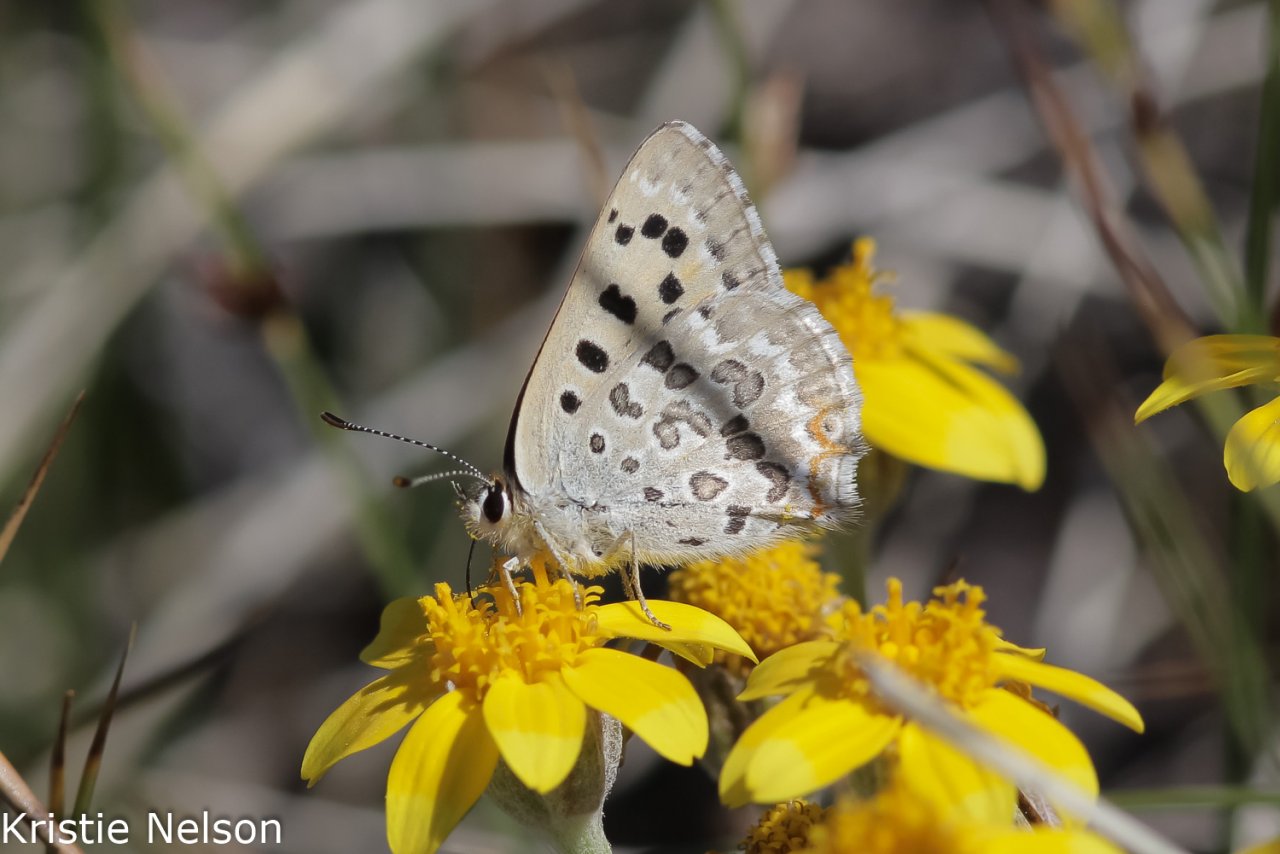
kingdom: Animalia
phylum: Arthropoda
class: Insecta
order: Lepidoptera
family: Lycaenidae
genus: Lycaena
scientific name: Lycaena editha
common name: Edith's Copper
